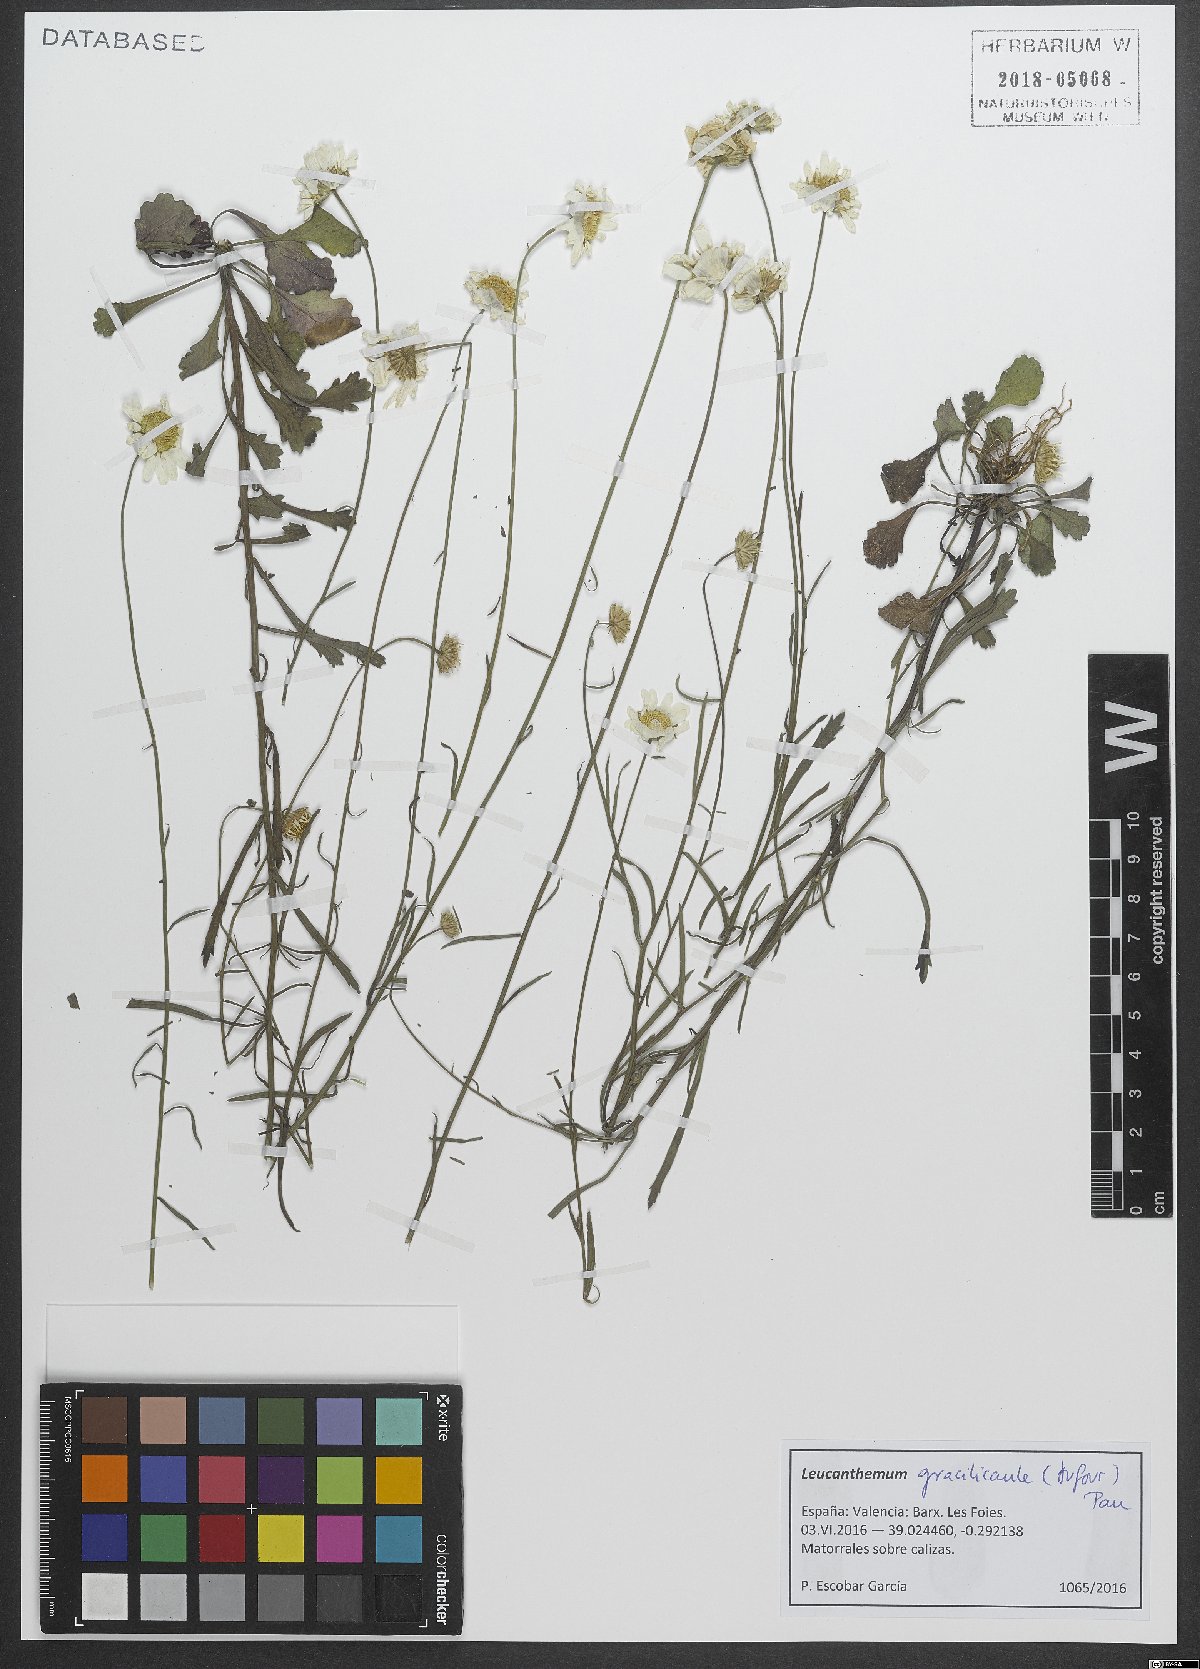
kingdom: Plantae
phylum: Tracheophyta
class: Magnoliopsida
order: Asterales
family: Asteraceae
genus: Leucanthemum
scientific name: Leucanthemum gracilicaule
